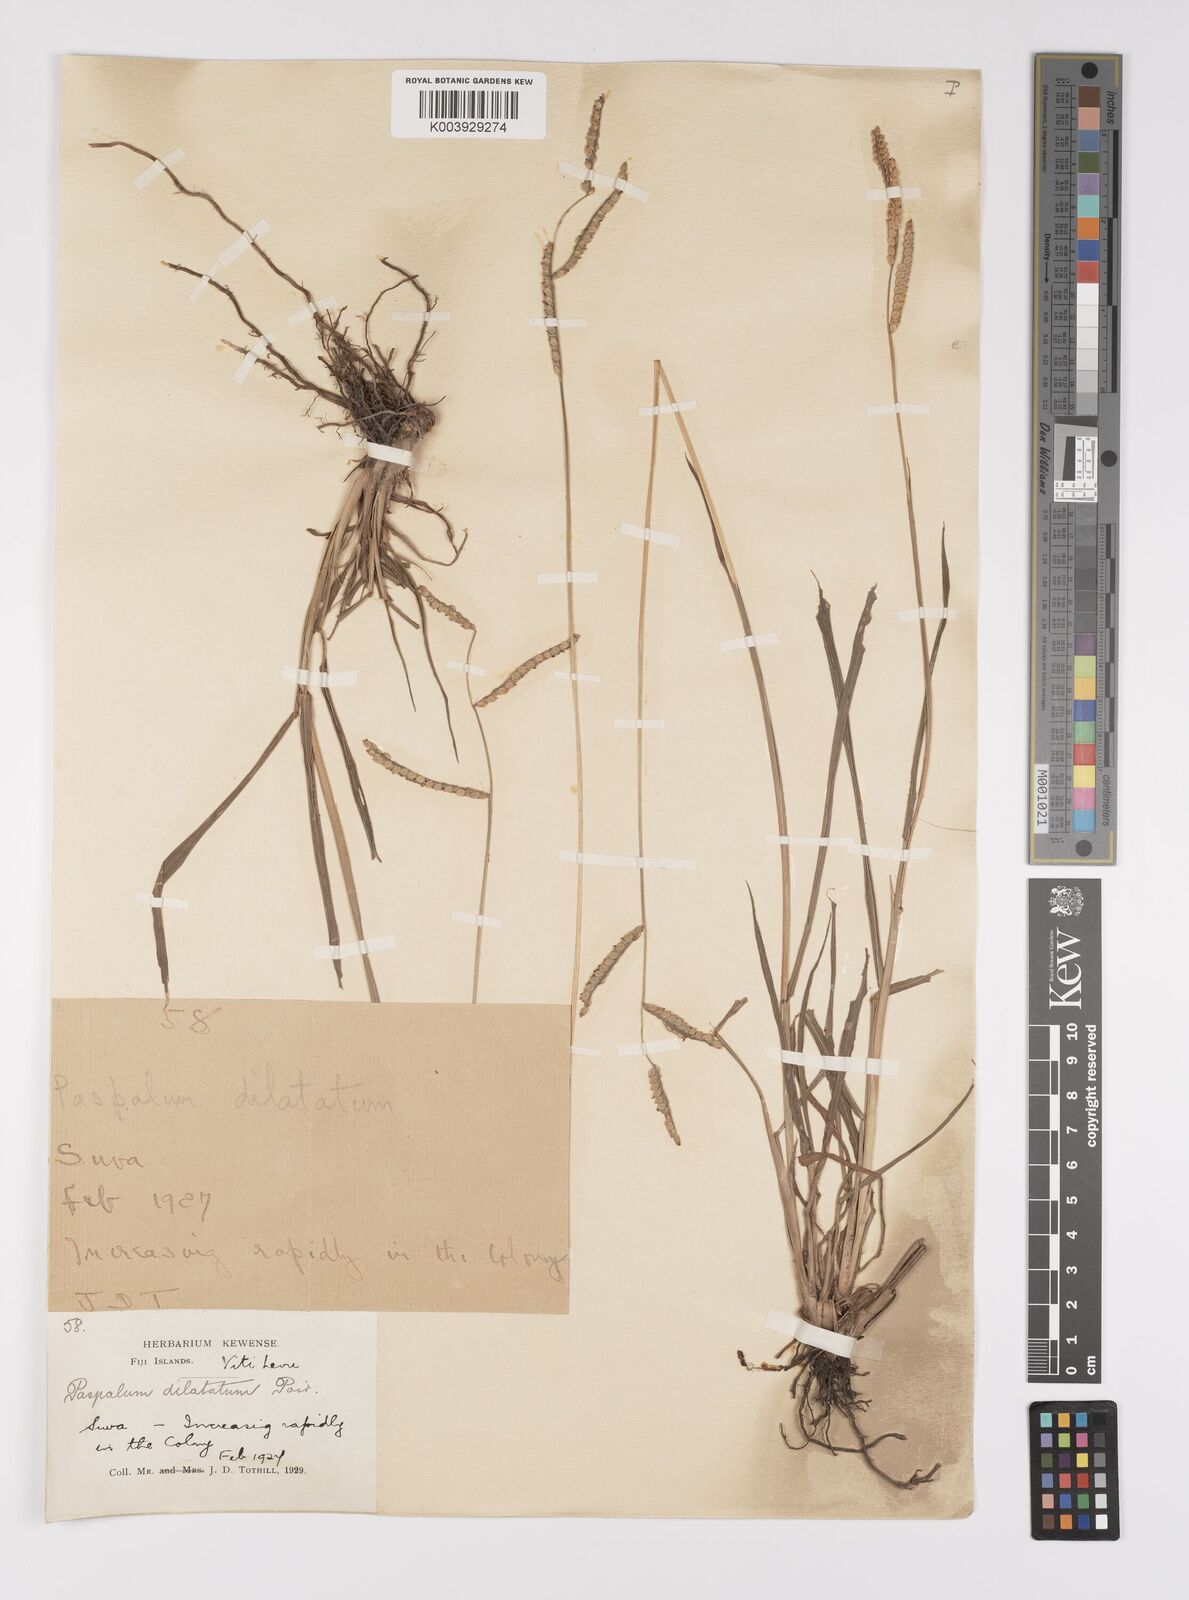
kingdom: Plantae
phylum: Tracheophyta
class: Liliopsida
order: Poales
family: Poaceae
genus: Paspalum
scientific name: Paspalum dilatatum
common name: Dallisgrass
